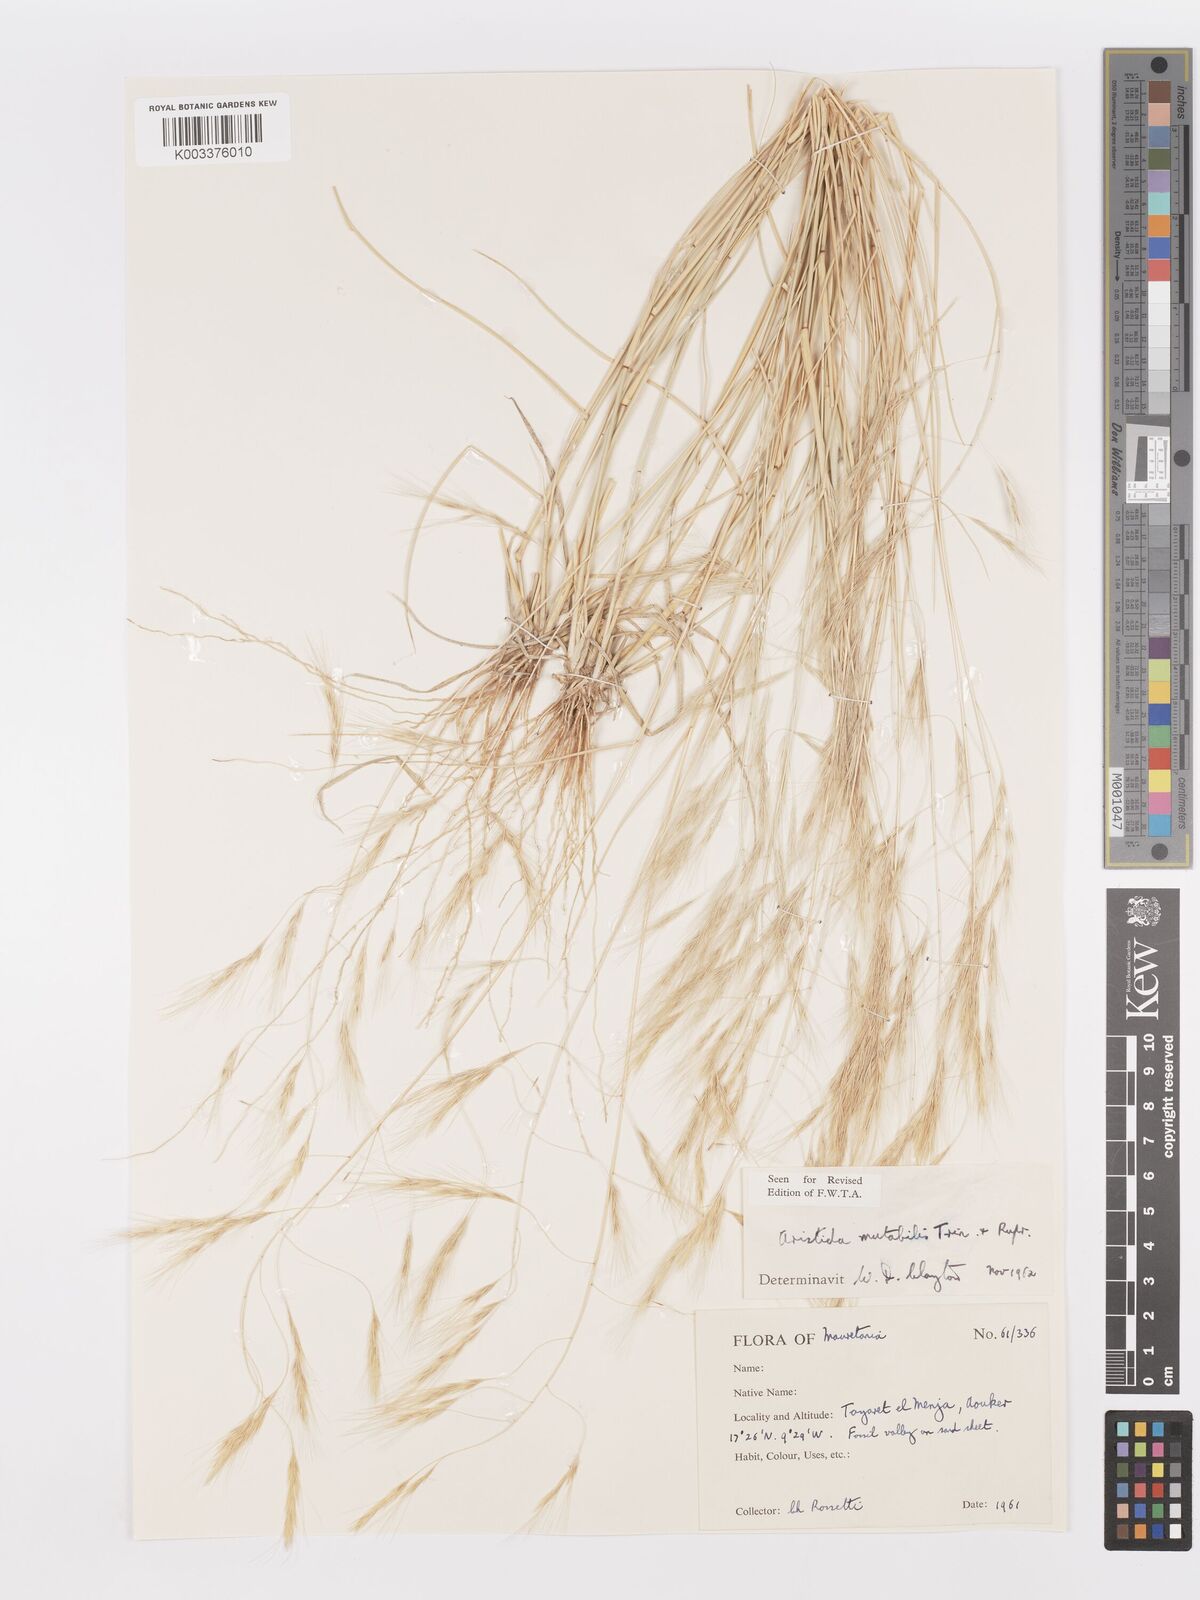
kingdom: Plantae
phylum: Tracheophyta
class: Liliopsida
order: Poales
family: Poaceae
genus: Aristida
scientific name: Aristida mutabilis
